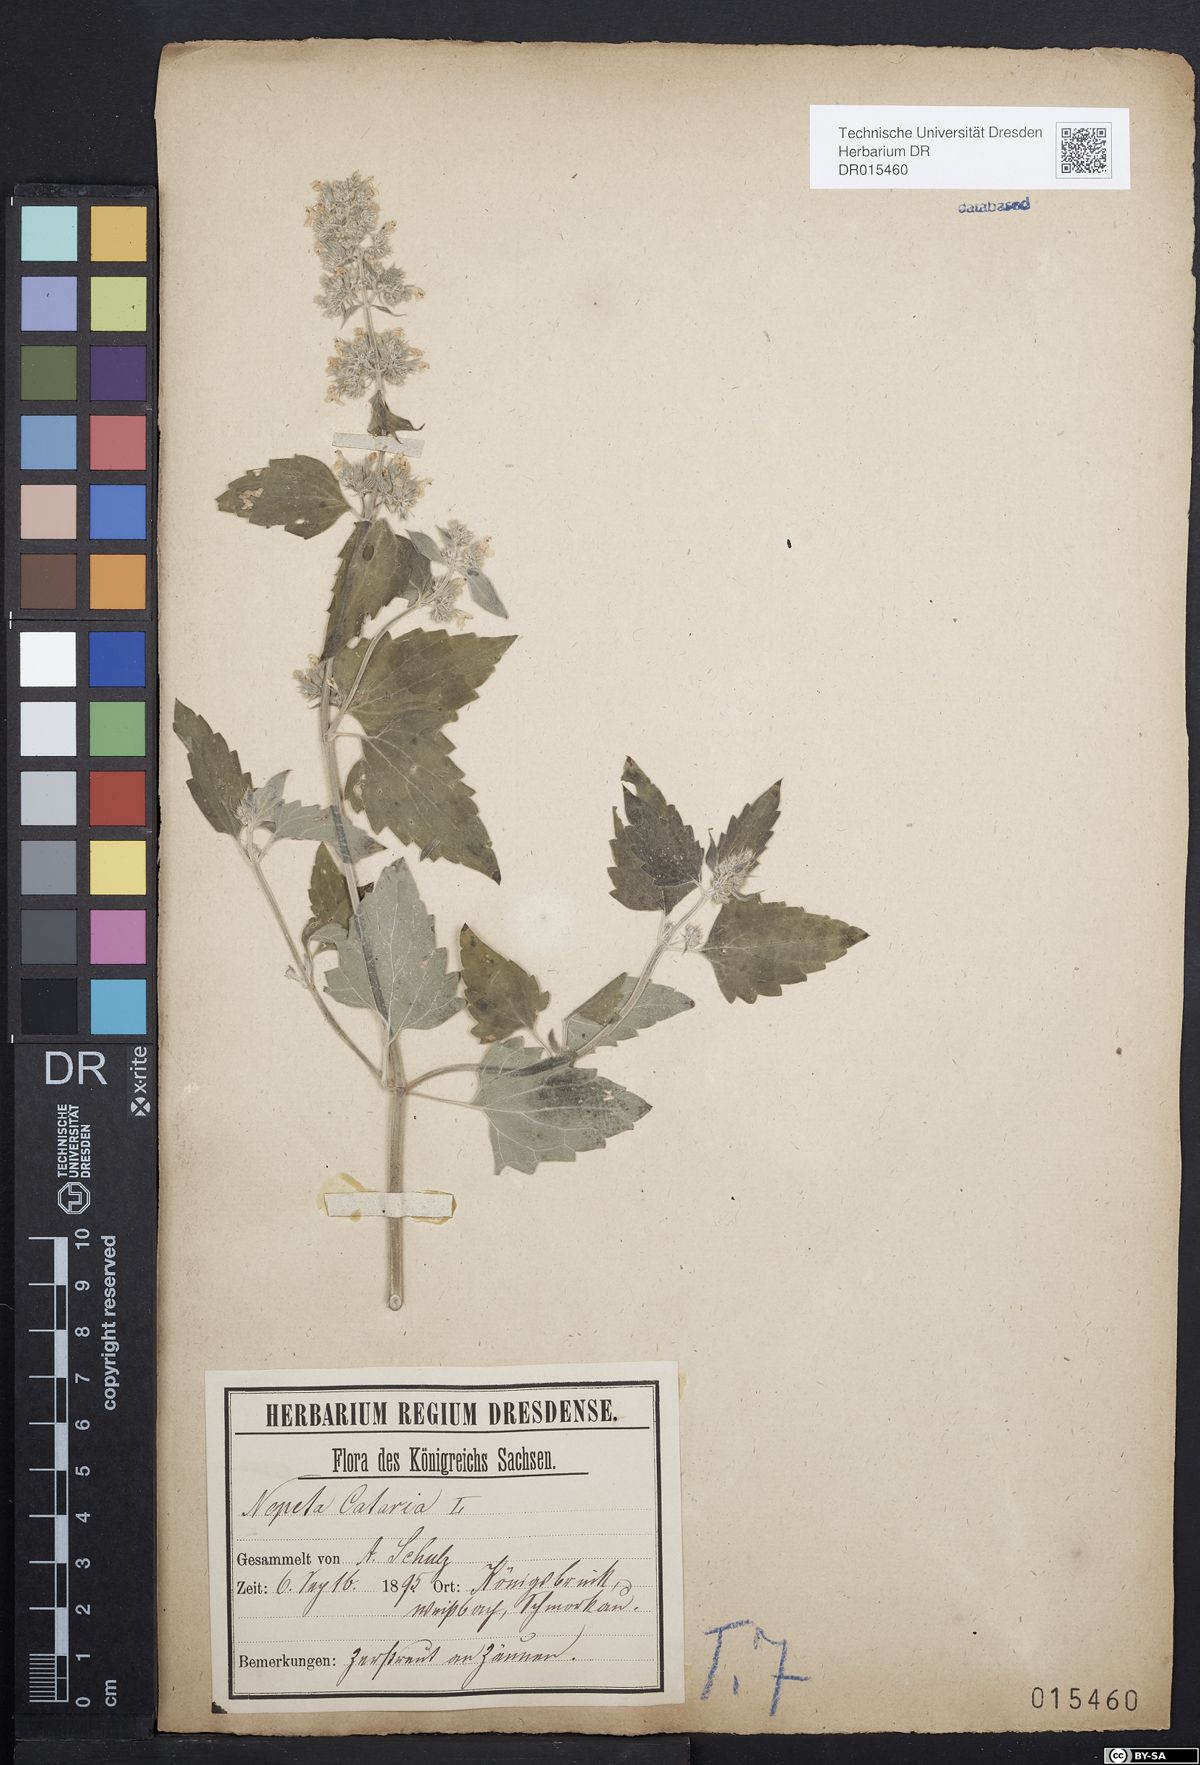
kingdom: Plantae
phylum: Tracheophyta
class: Magnoliopsida
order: Lamiales
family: Lamiaceae
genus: Nepeta
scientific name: Nepeta cataria
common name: Catnip
